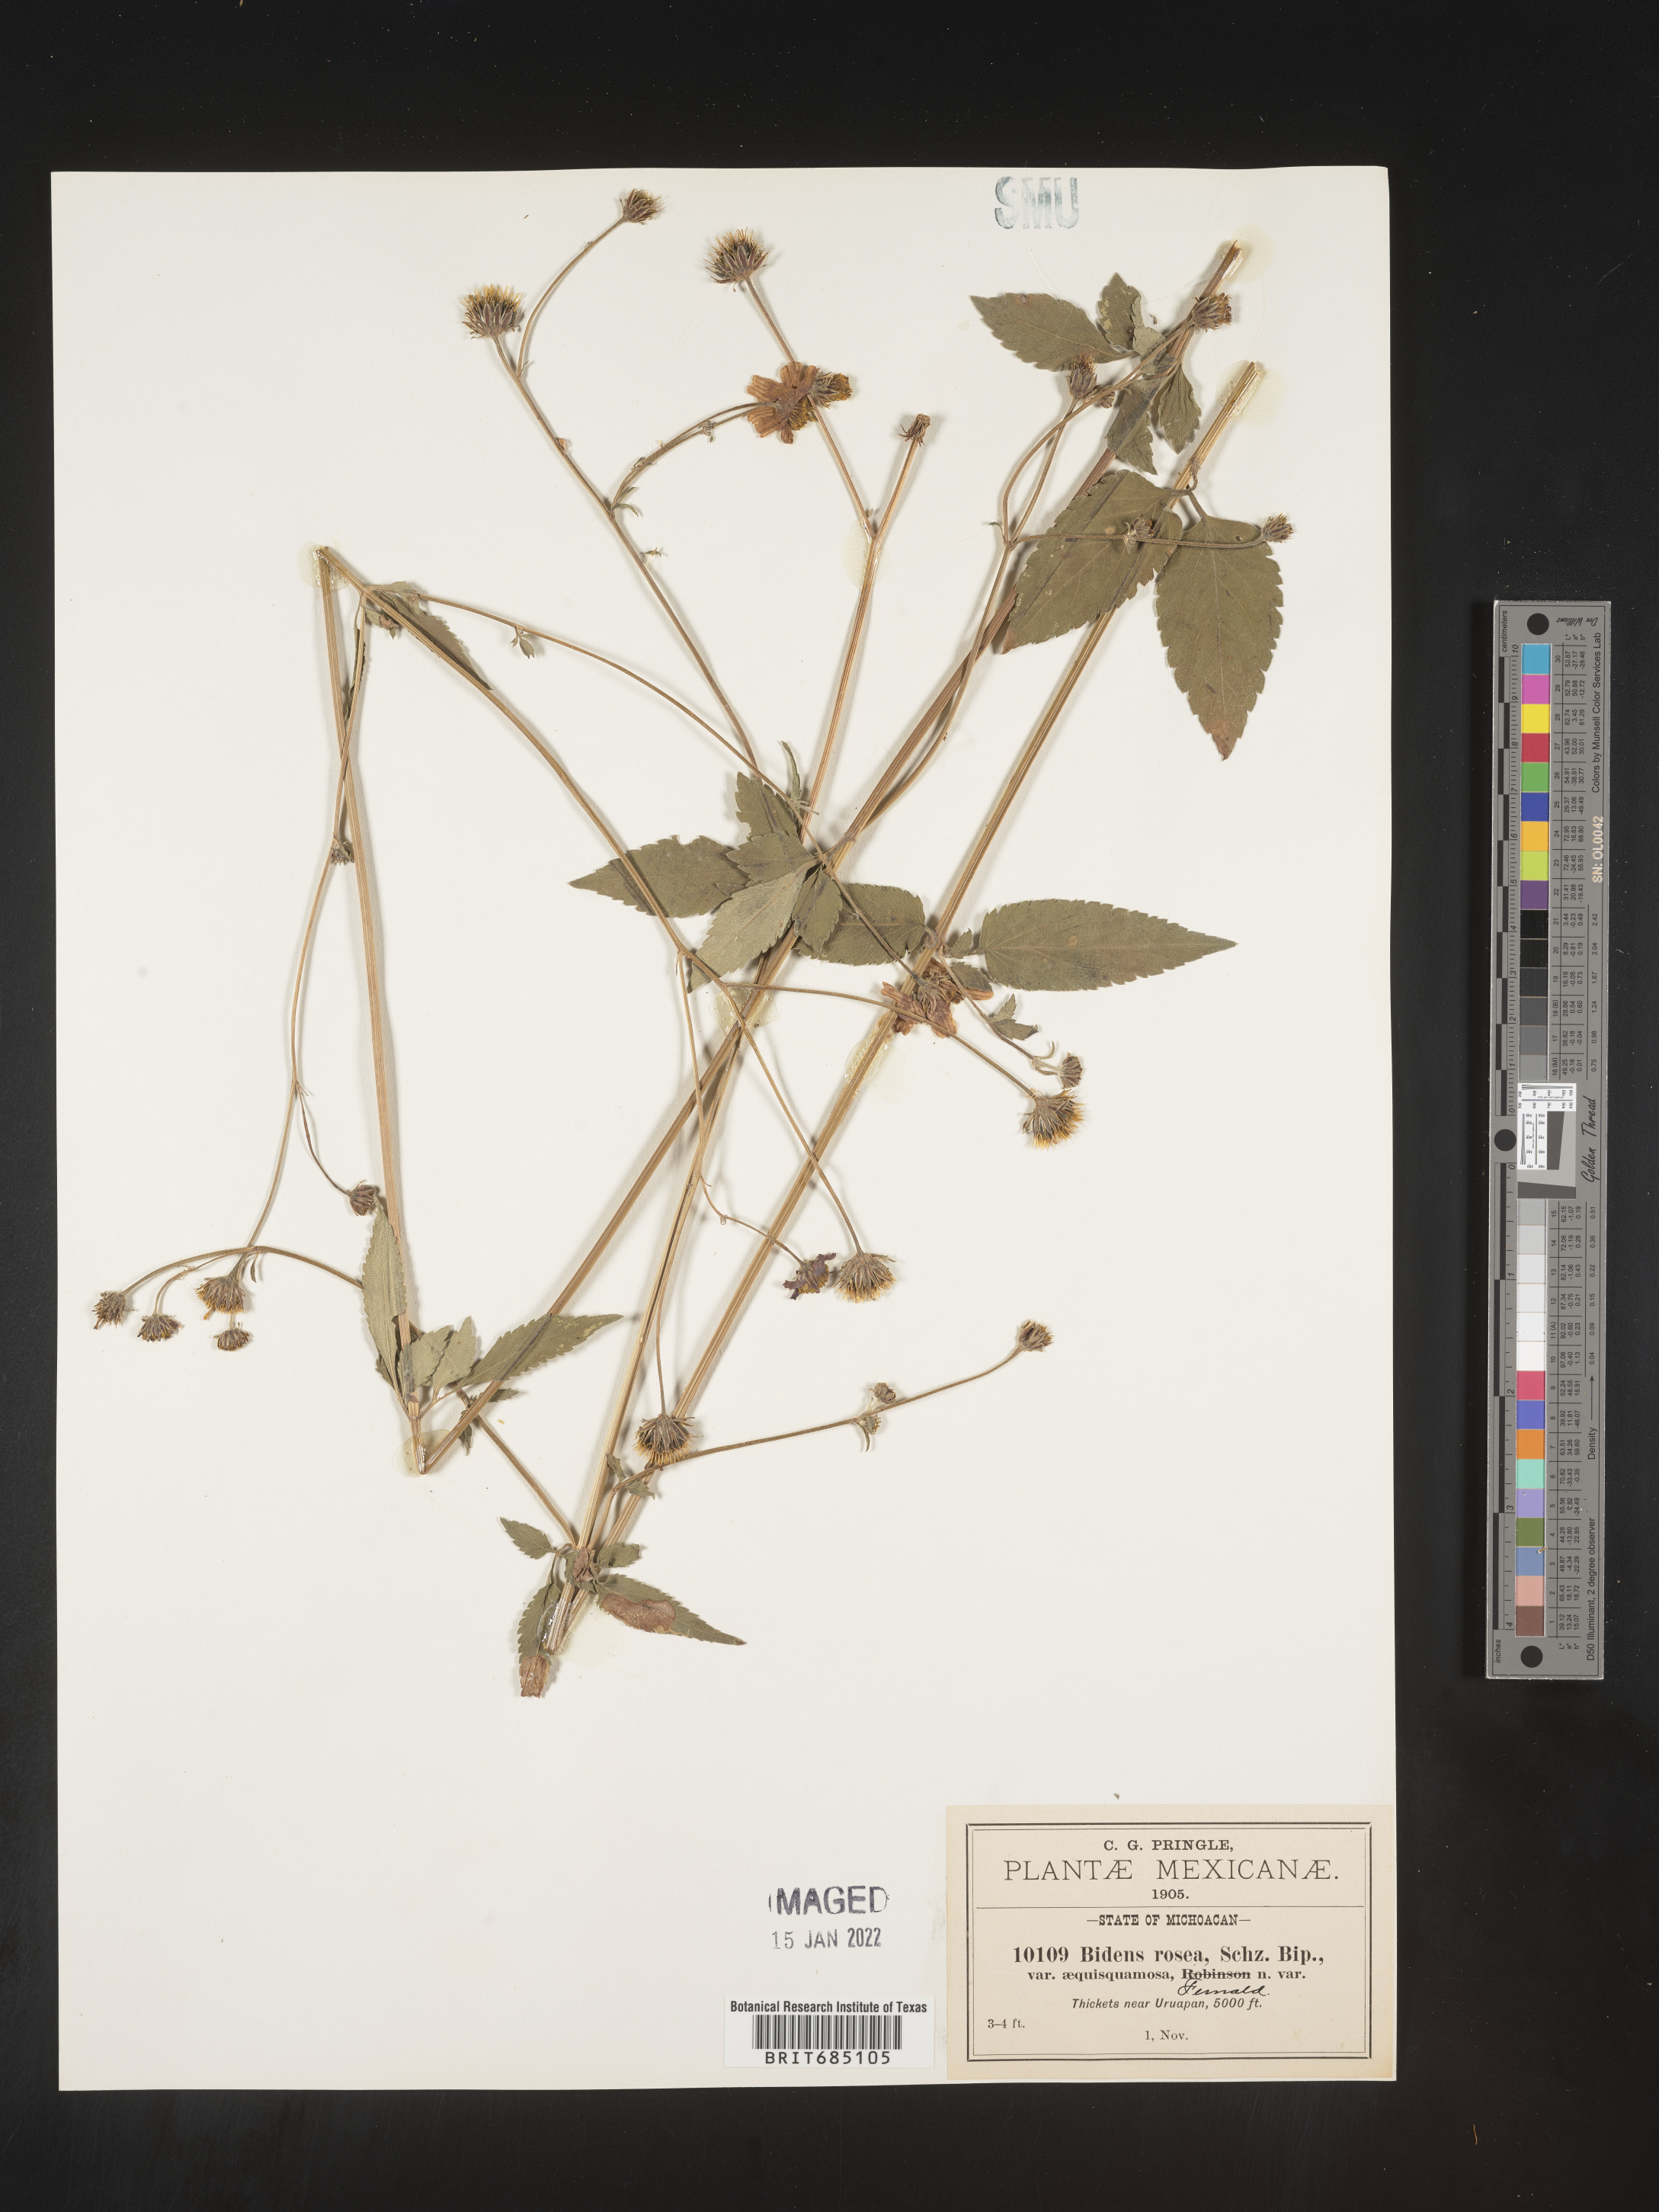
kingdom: Plantae
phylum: Tracheophyta
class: Magnoliopsida
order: Asterales
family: Asteraceae
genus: Bidens
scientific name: Bidens
